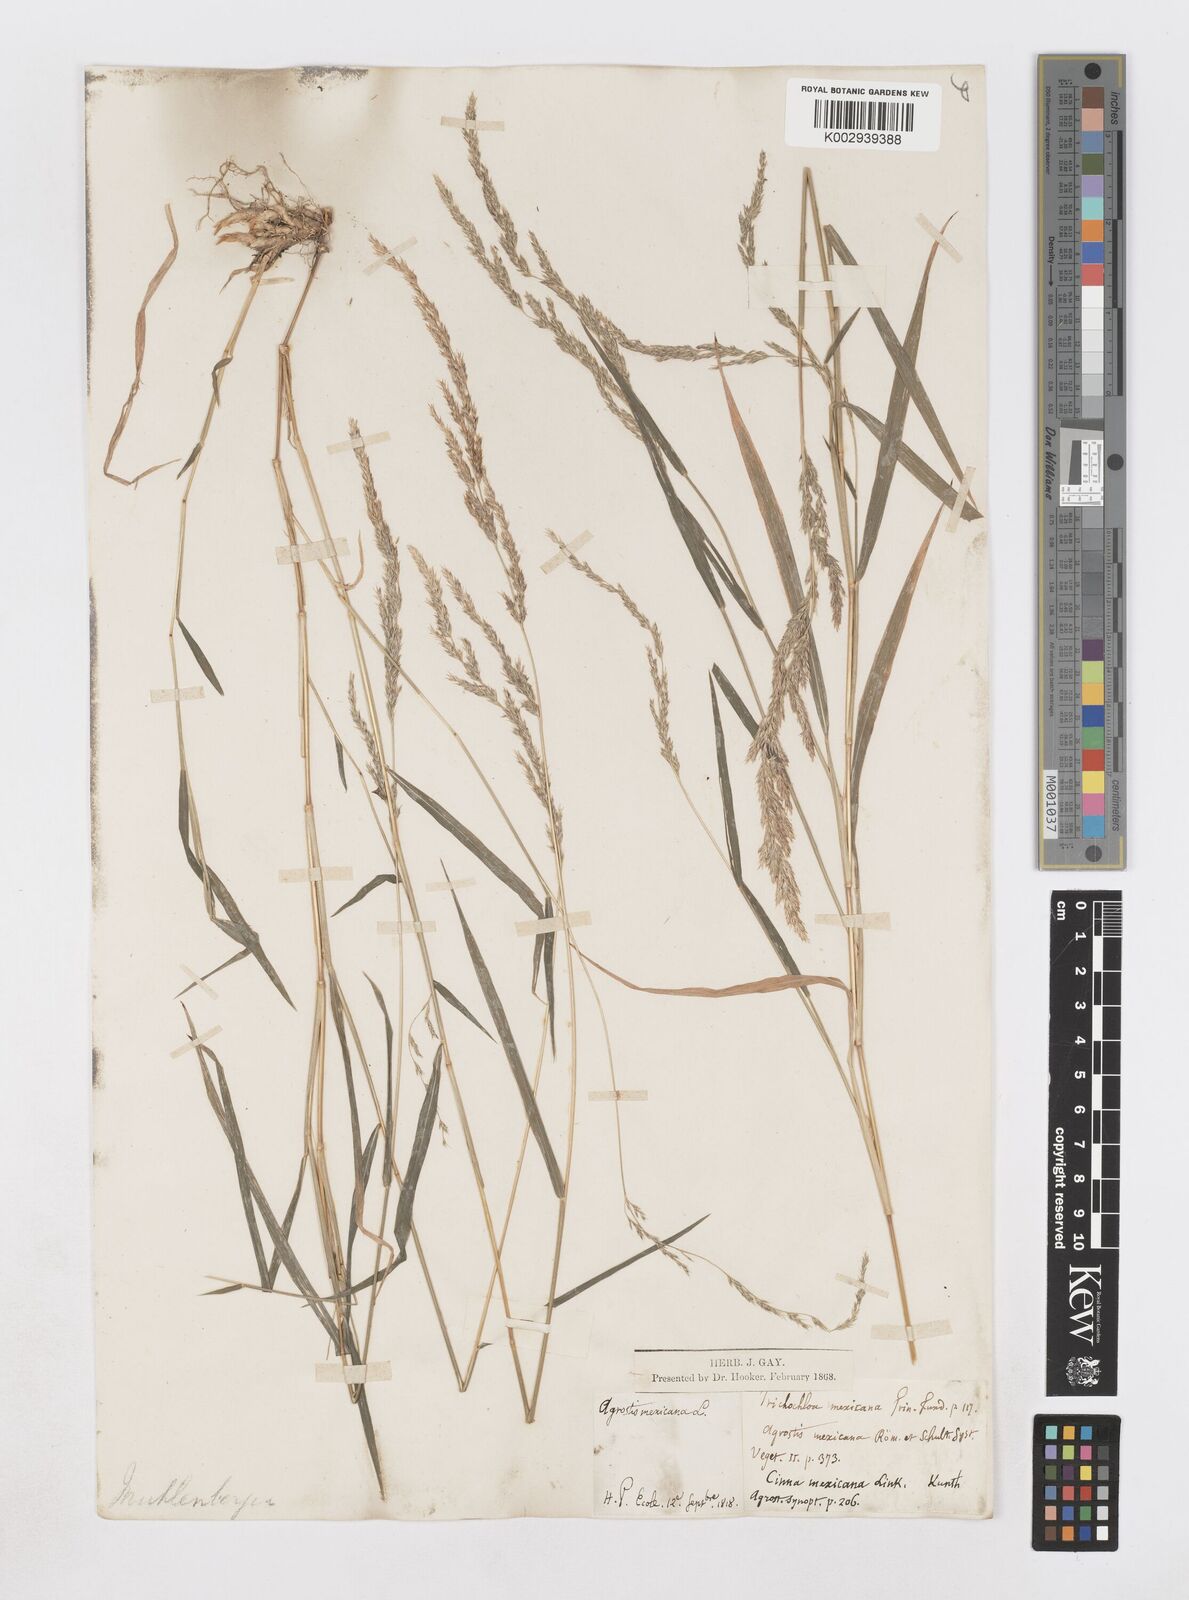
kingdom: Plantae
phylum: Tracheophyta
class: Liliopsida
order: Poales
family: Poaceae
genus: Muhlenbergia
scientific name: Muhlenbergia mexicana
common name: Mexican muhly
